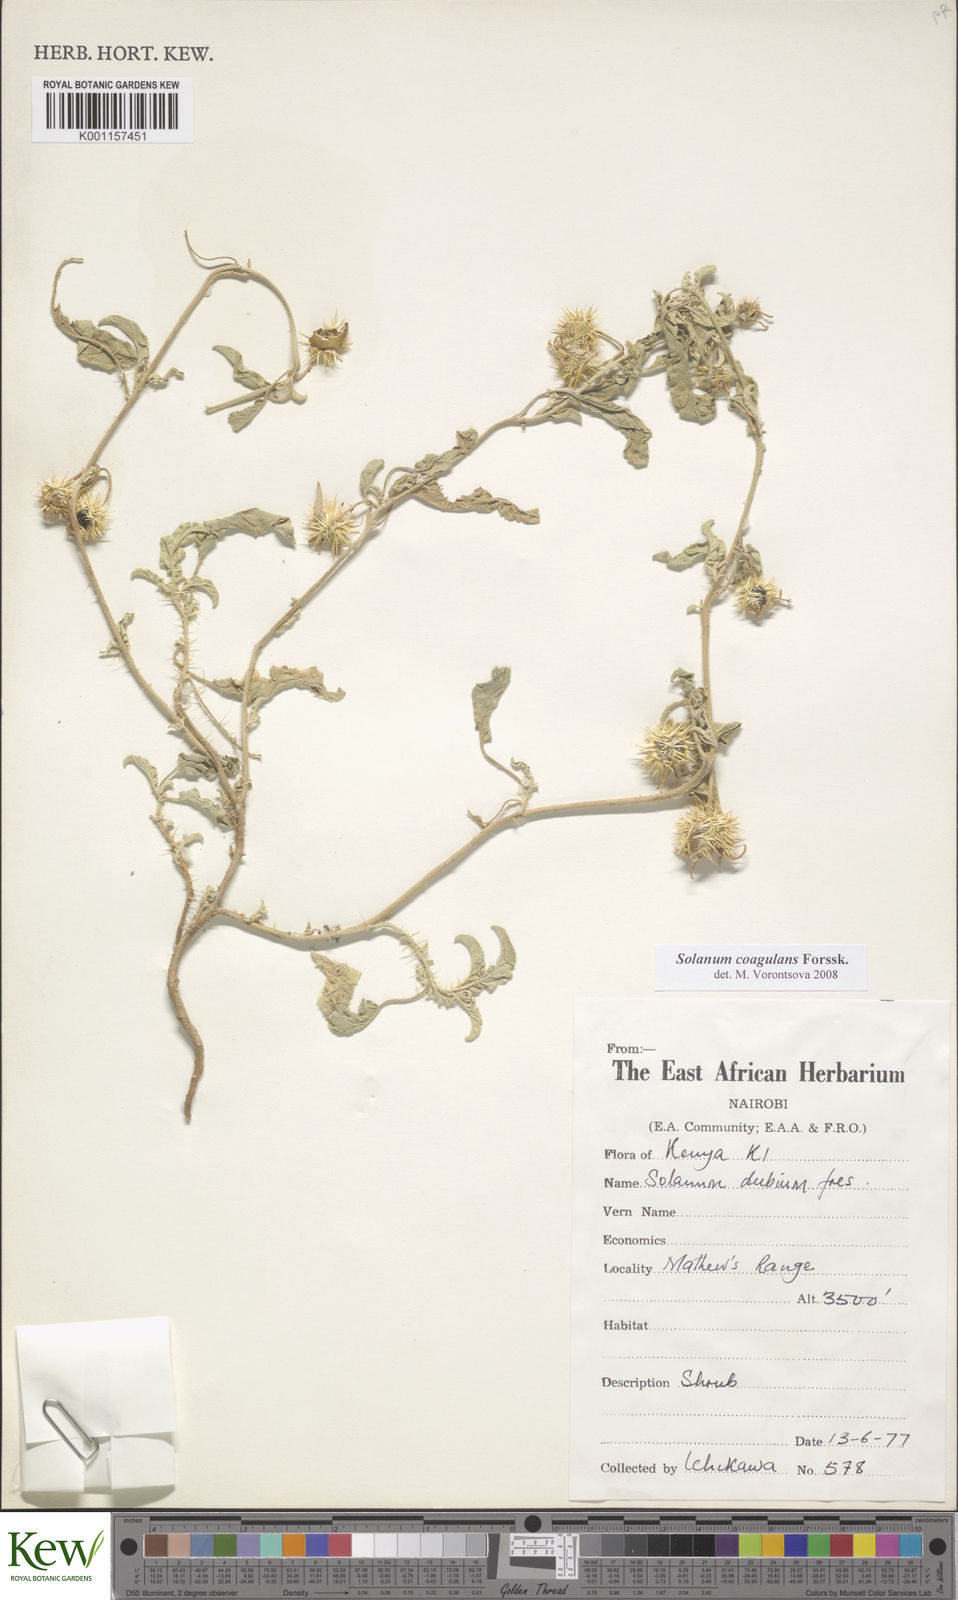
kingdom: Plantae
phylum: Tracheophyta
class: Magnoliopsida
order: Solanales
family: Solanaceae
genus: Solanum
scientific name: Solanum coagulans
